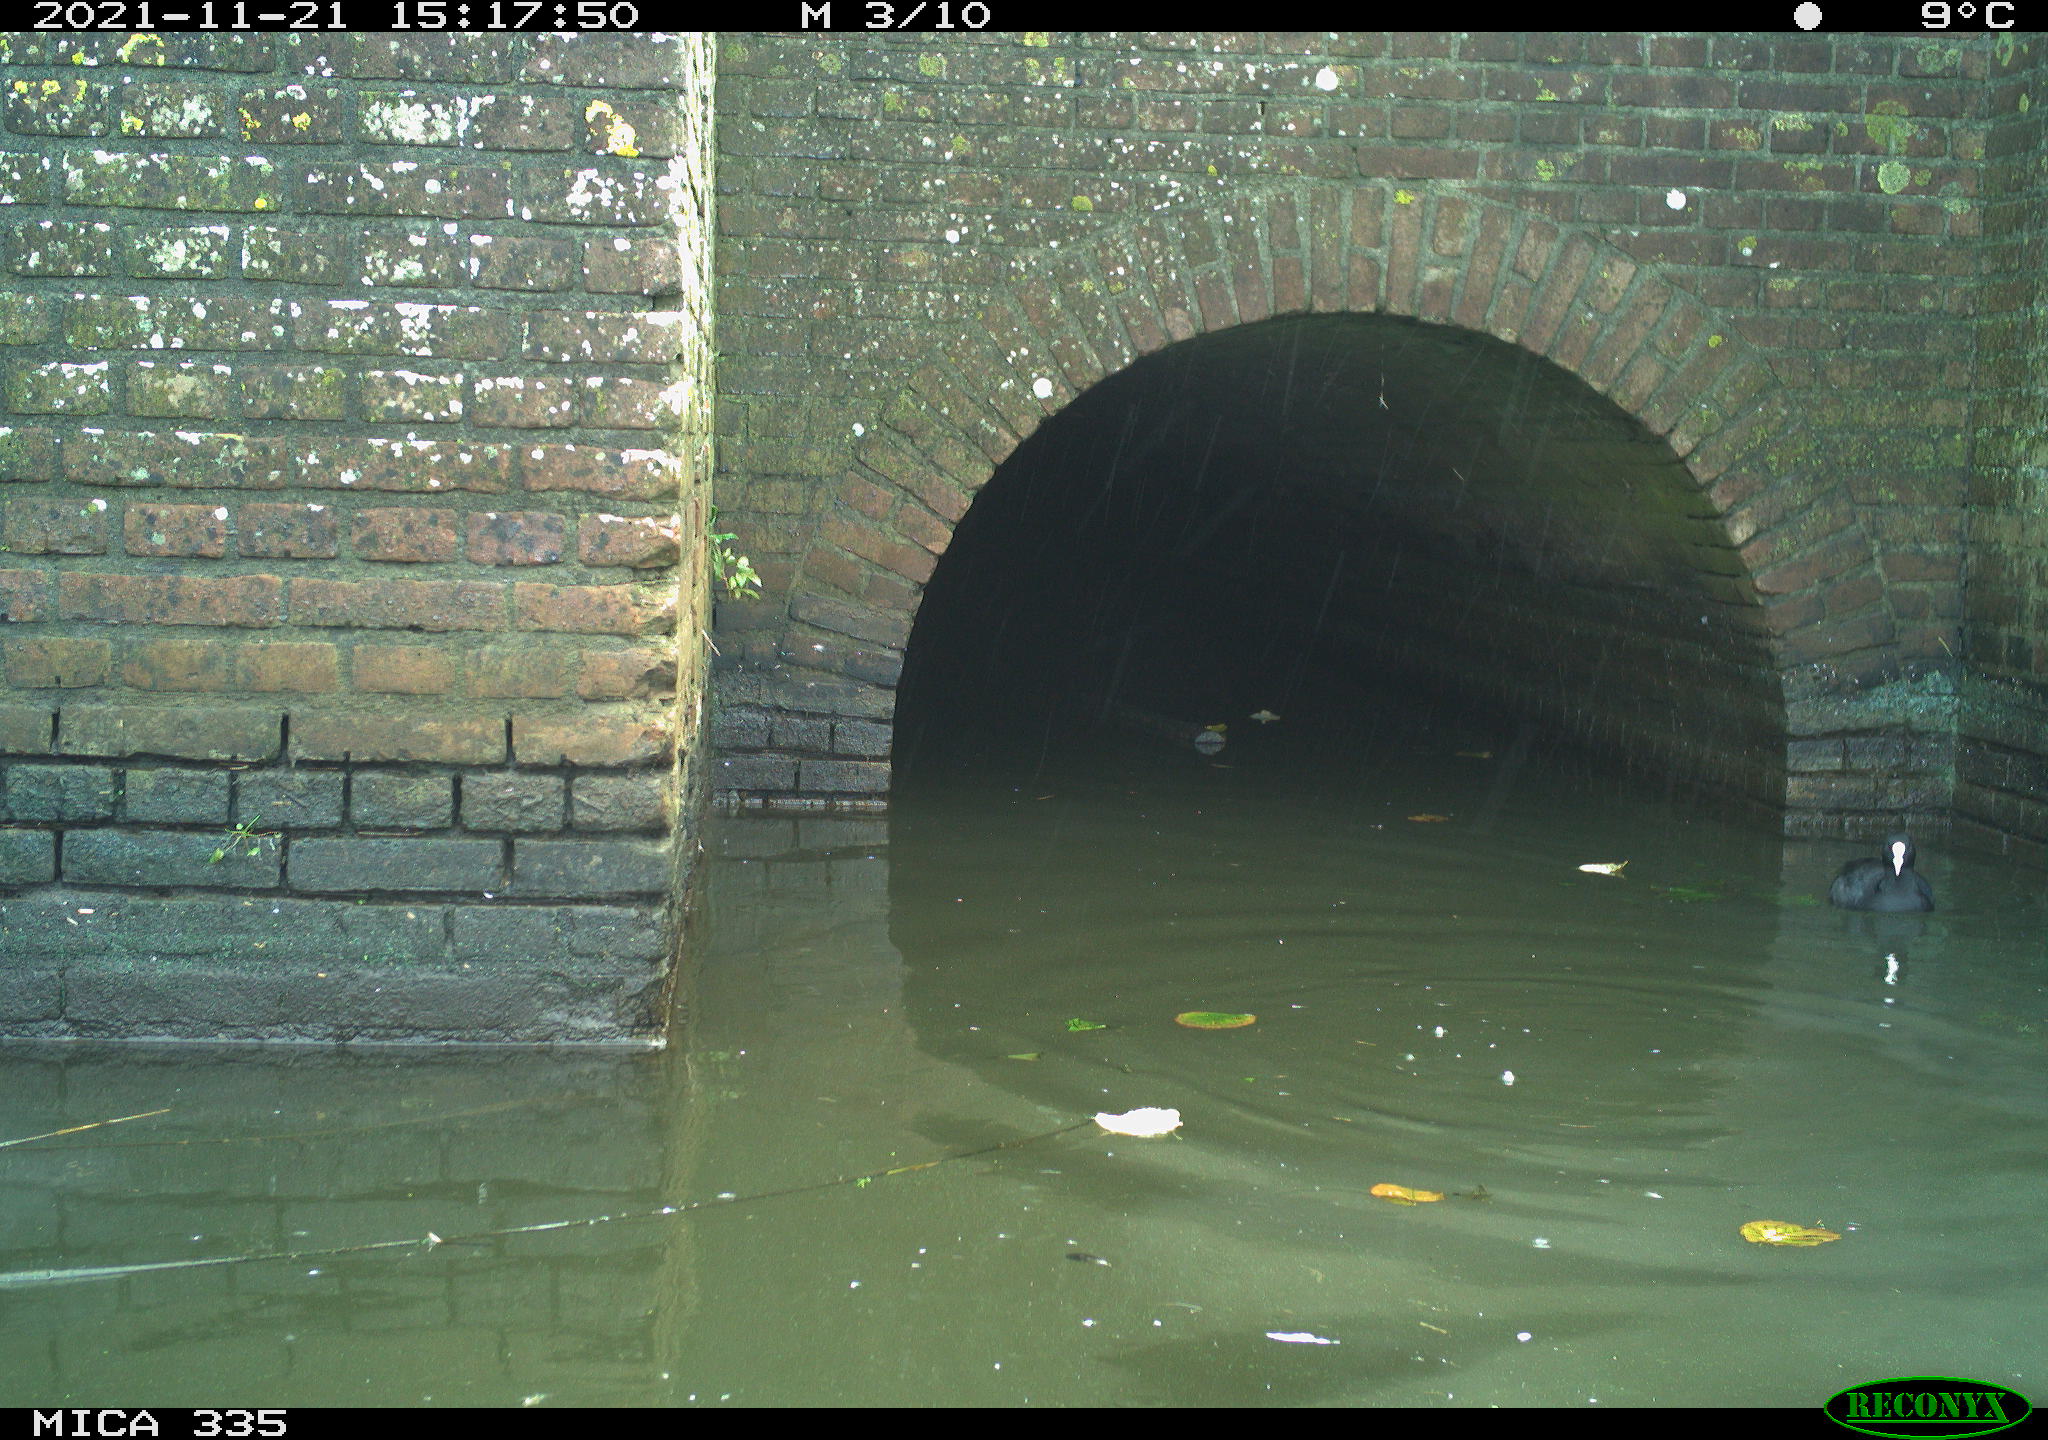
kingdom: Animalia
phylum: Chordata
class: Aves
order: Gruiformes
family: Rallidae
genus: Fulica
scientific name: Fulica atra
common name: Eurasian coot
